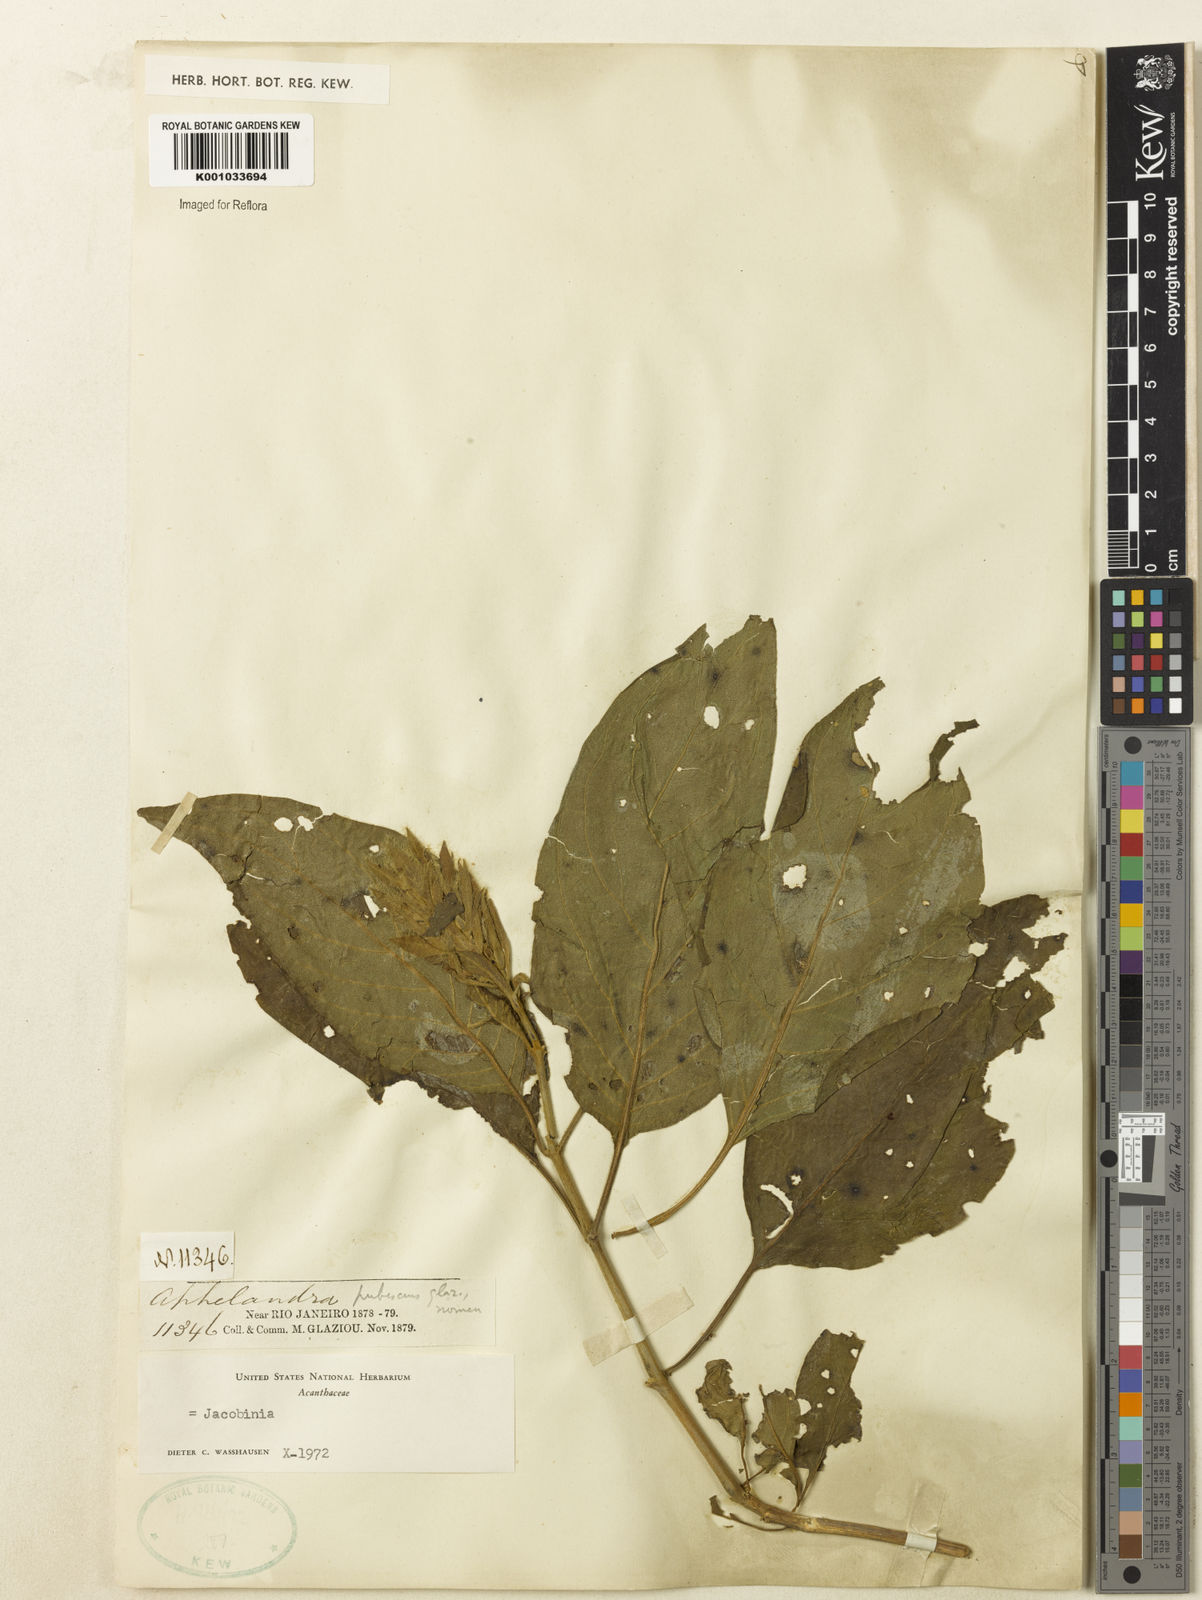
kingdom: Plantae
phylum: Tracheophyta
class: Magnoliopsida
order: Lamiales
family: Acanthaceae
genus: Justicia
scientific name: Justicia
